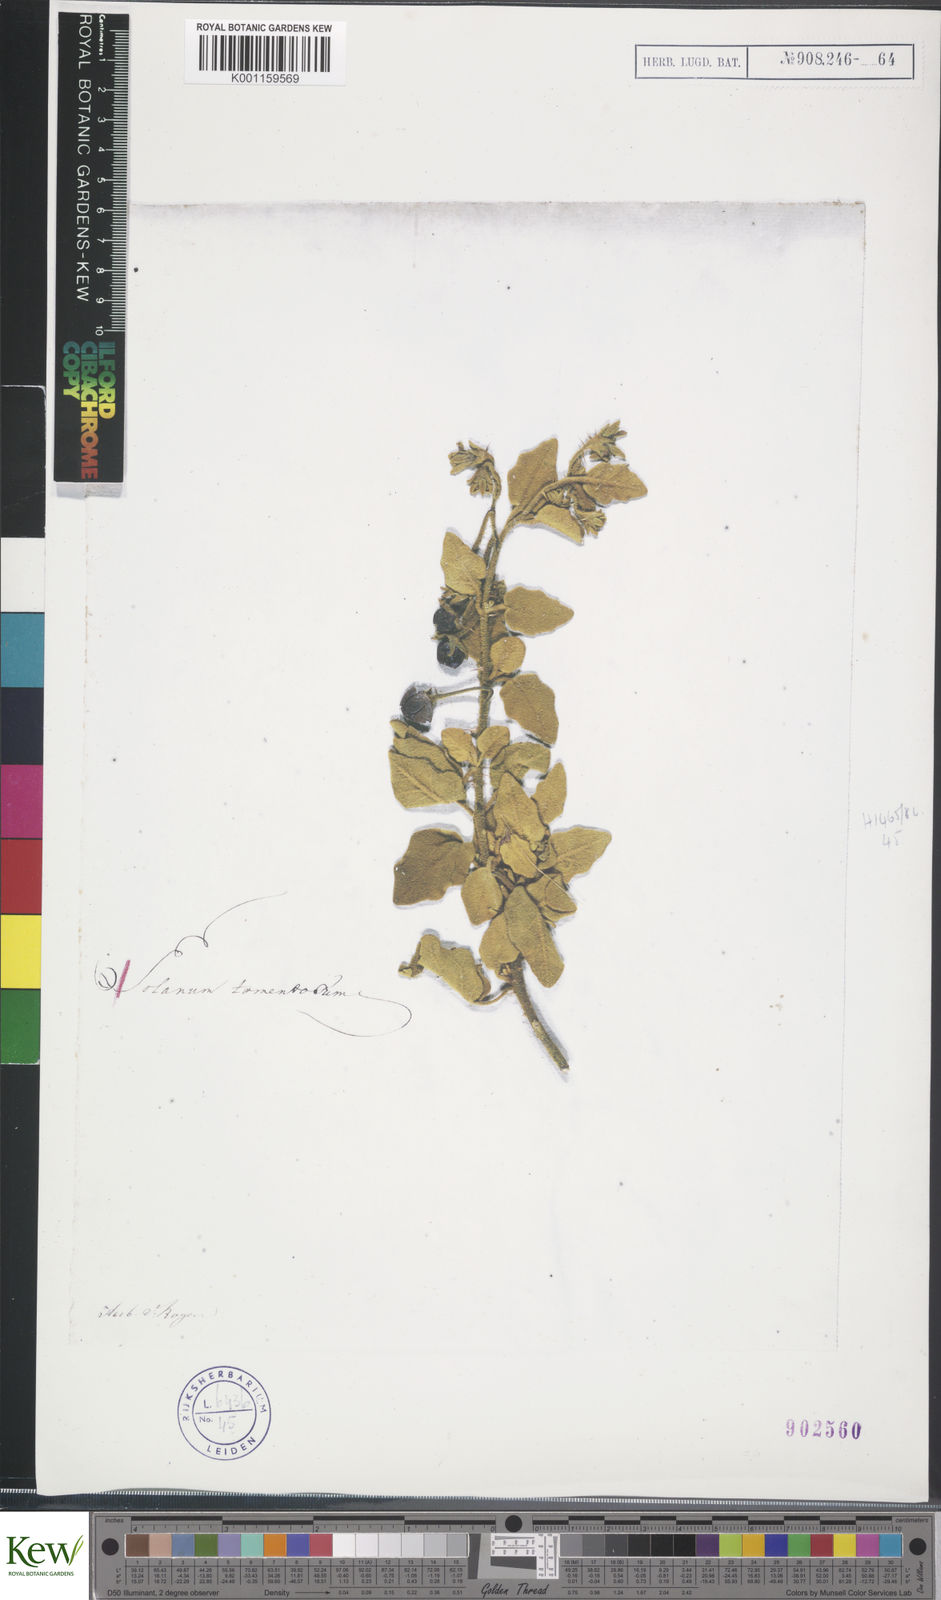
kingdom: Plantae
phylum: Tracheophyta
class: Magnoliopsida
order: Solanales
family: Solanaceae
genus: Solanum
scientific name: Solanum tomentosum
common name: Wild aubergine
